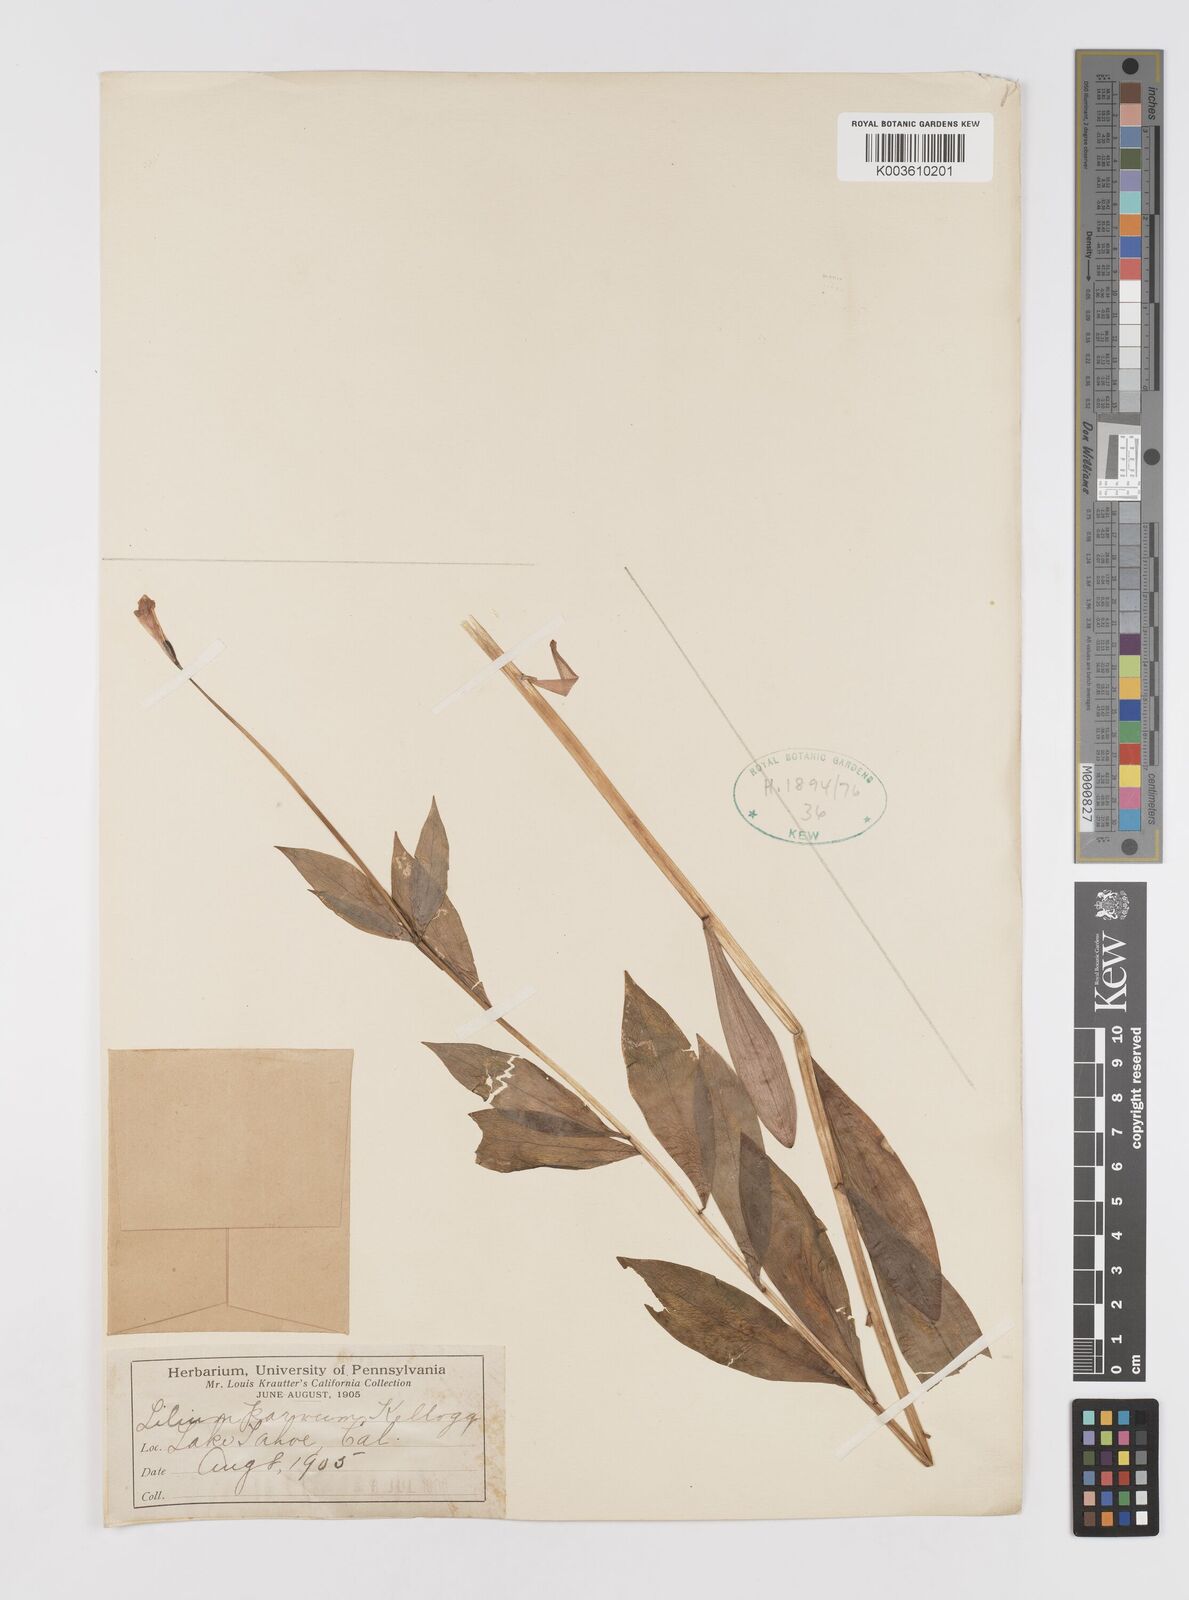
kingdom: Plantae
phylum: Tracheophyta
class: Liliopsida
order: Liliales
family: Liliaceae
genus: Lilium
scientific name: Lilium parvum
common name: Alpine lily
